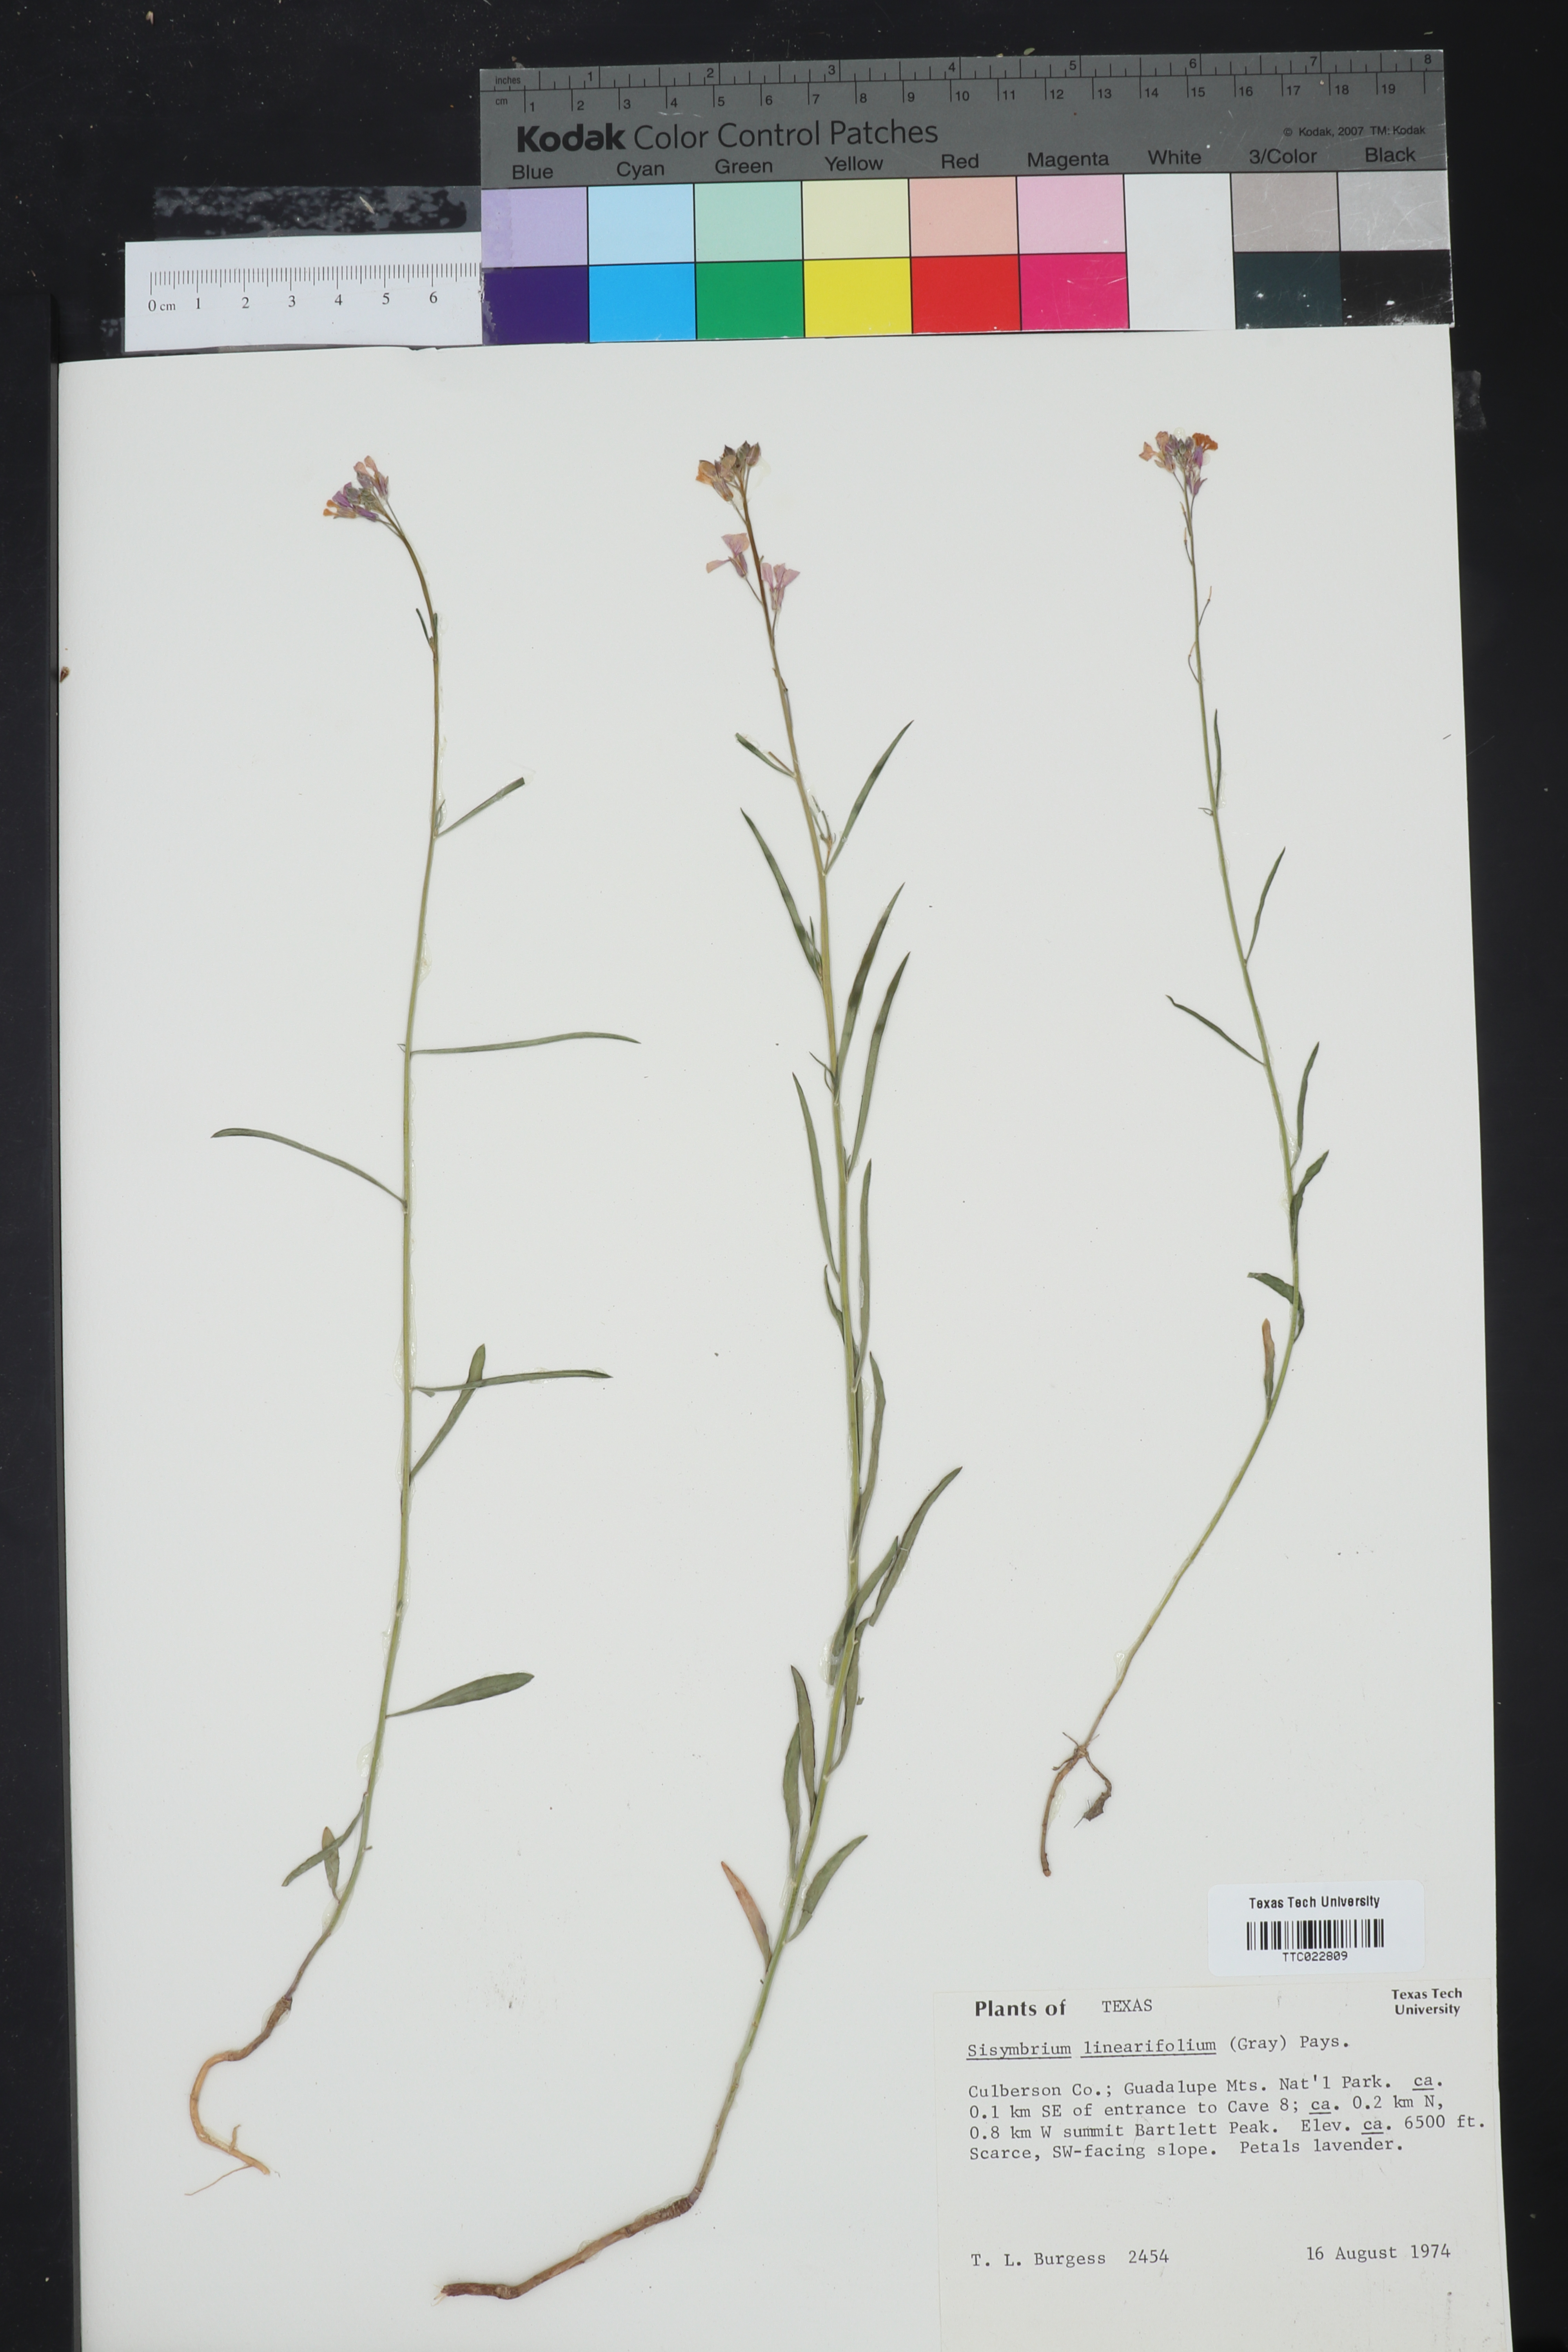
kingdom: Plantae
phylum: Tracheophyta
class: Magnoliopsida
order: Brassicales
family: Brassicaceae
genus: Hesperidanthus
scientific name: Hesperidanthus linearifolius
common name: Slim-leaf plains mustard
